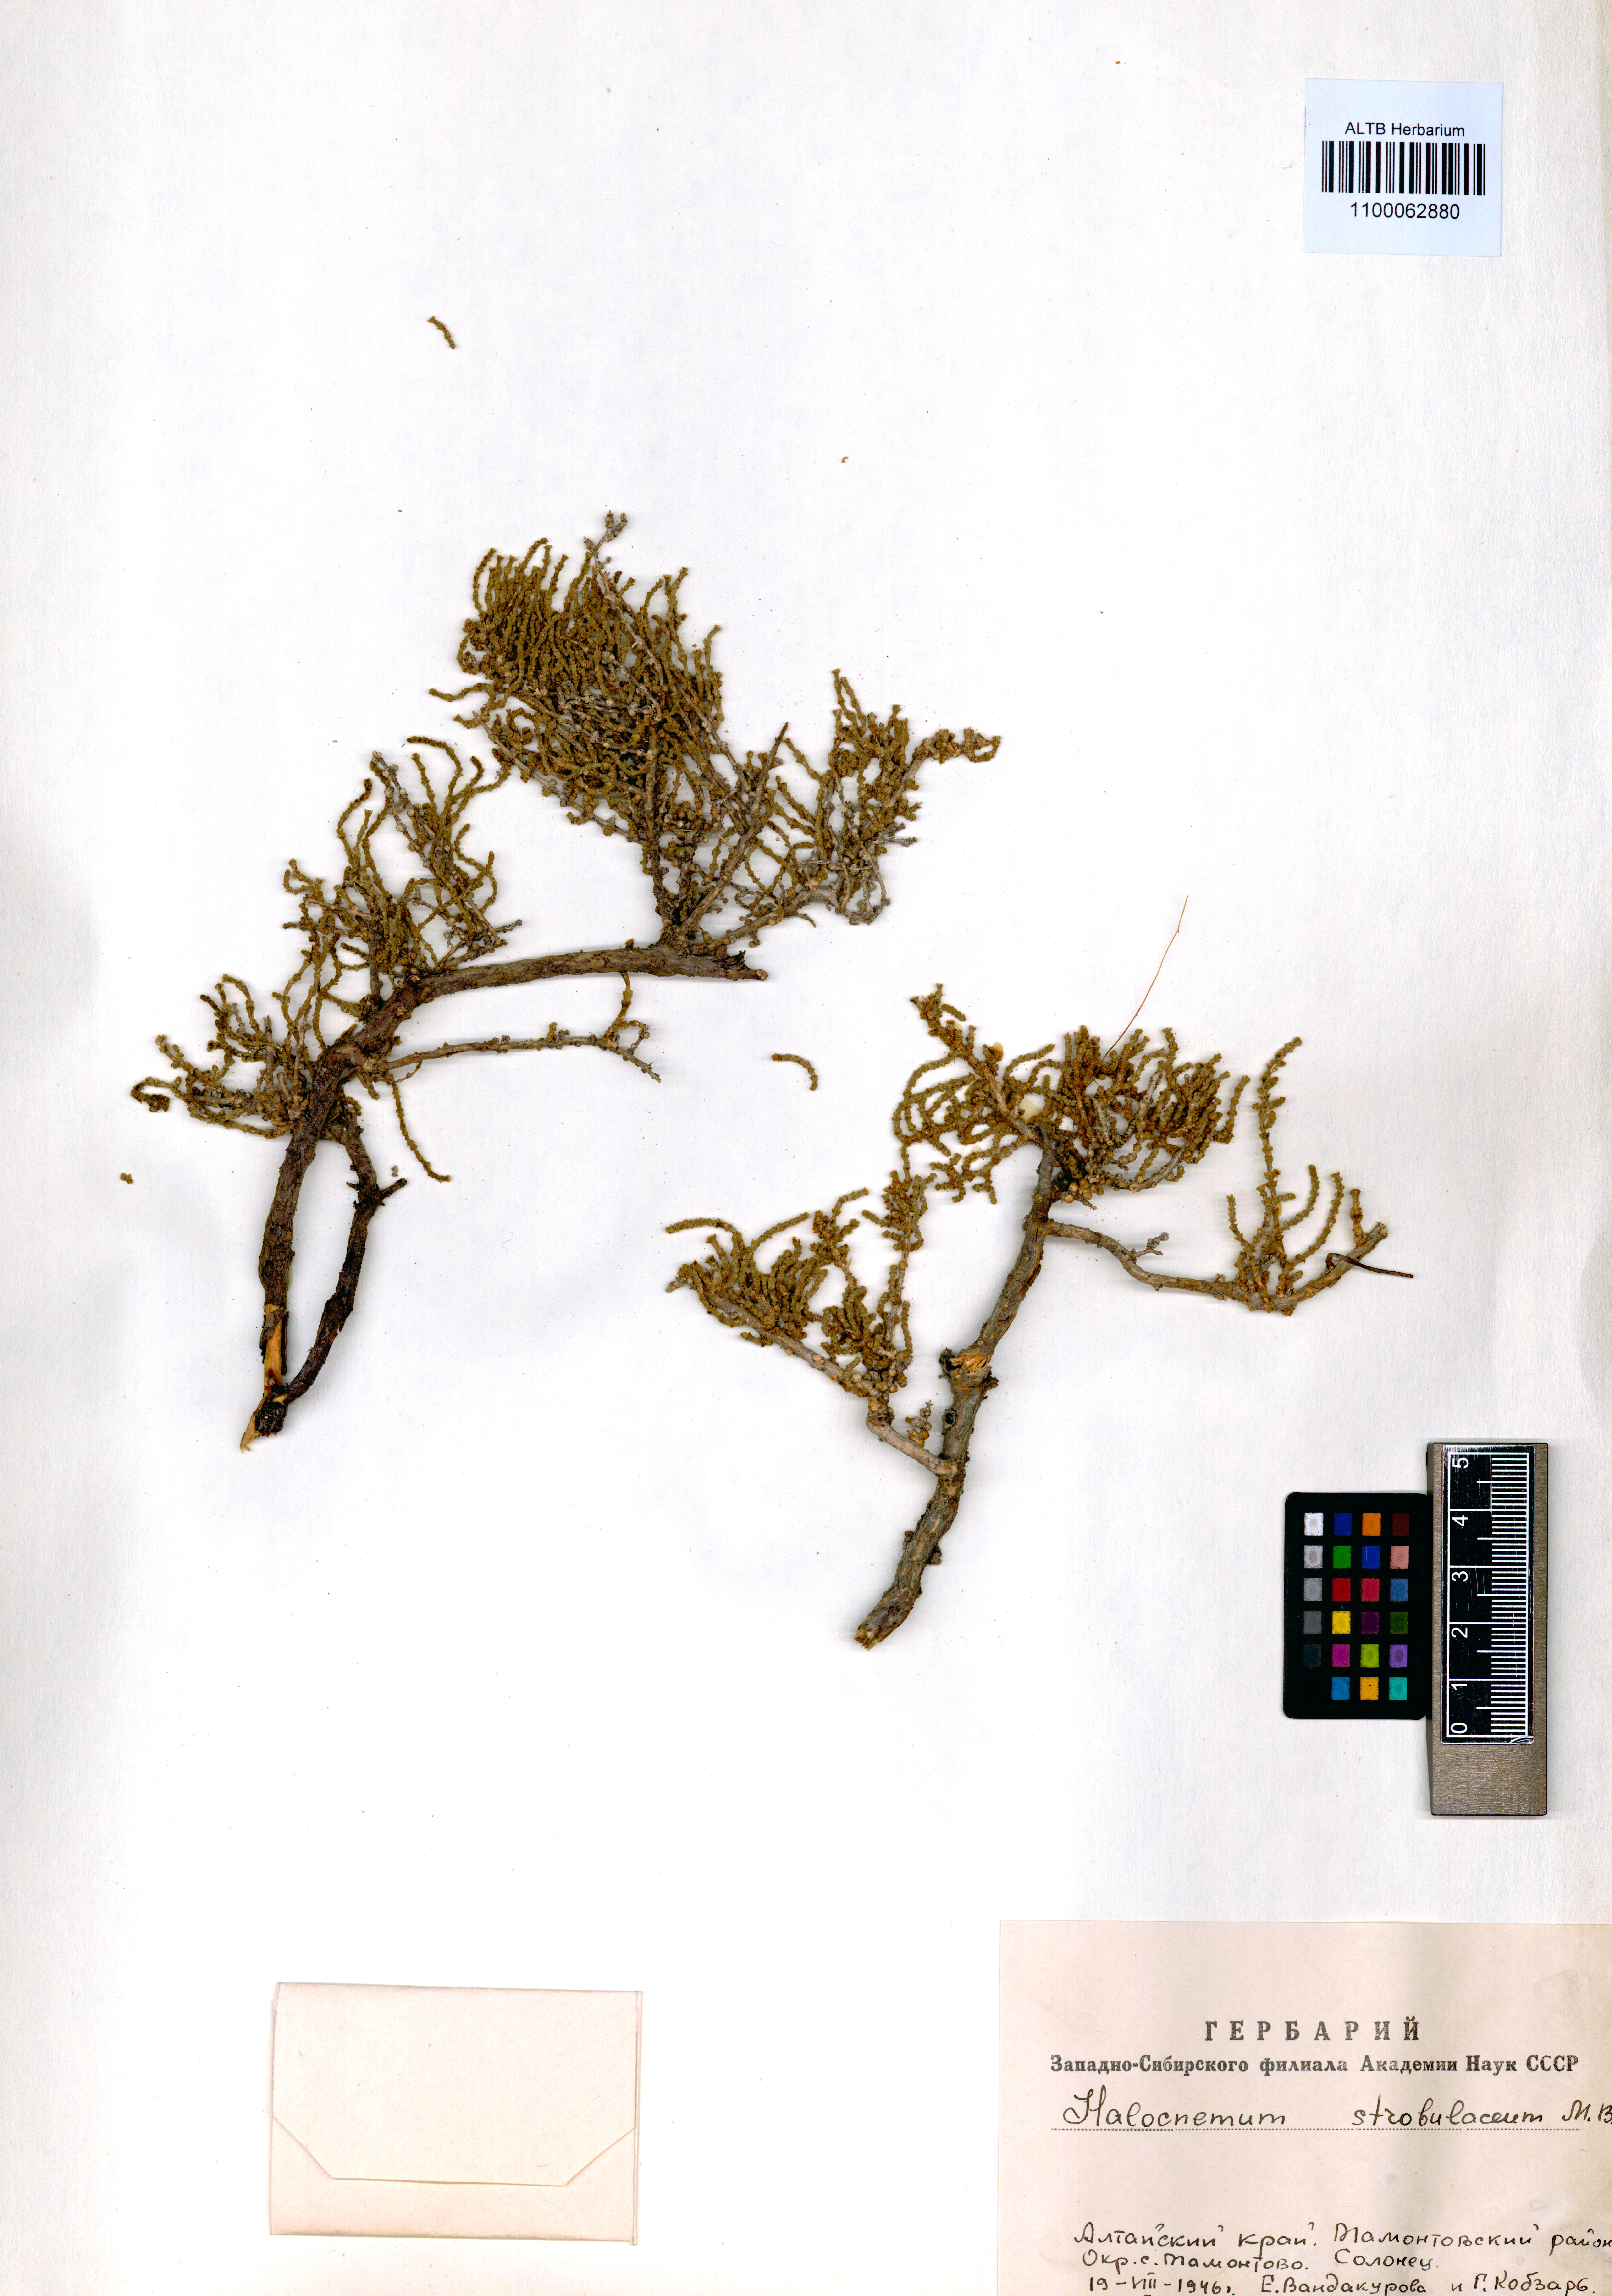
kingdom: Plantae
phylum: Tracheophyta
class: Magnoliopsida
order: Caryophyllales
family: Amaranthaceae
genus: Halocnemum
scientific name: Halocnemum strobilaceum
